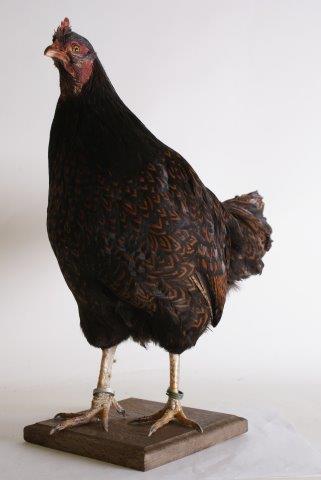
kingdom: Animalia
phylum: Chordata
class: Aves
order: Galliformes
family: Phasianidae
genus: Gallus
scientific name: Gallus gallus
